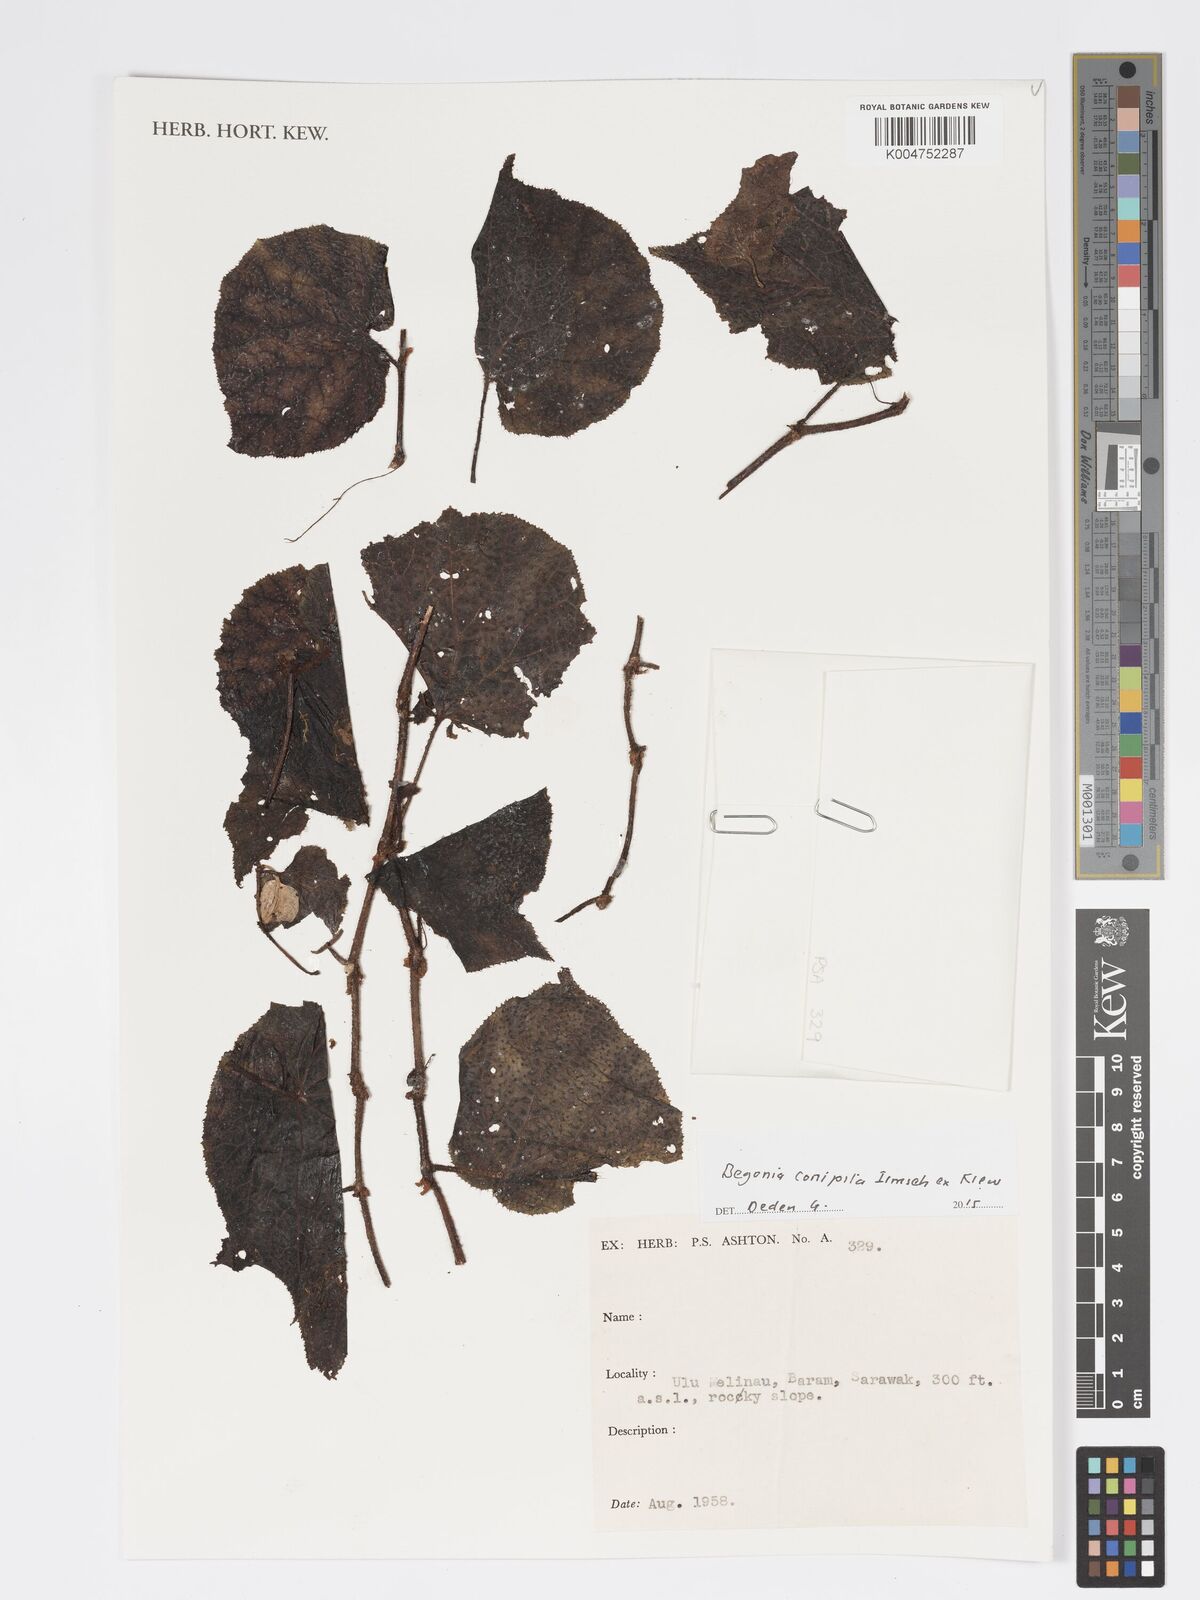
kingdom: Plantae
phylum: Tracheophyta
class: Magnoliopsida
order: Cucurbitales
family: Begoniaceae
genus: Begonia
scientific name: Begonia conipila
